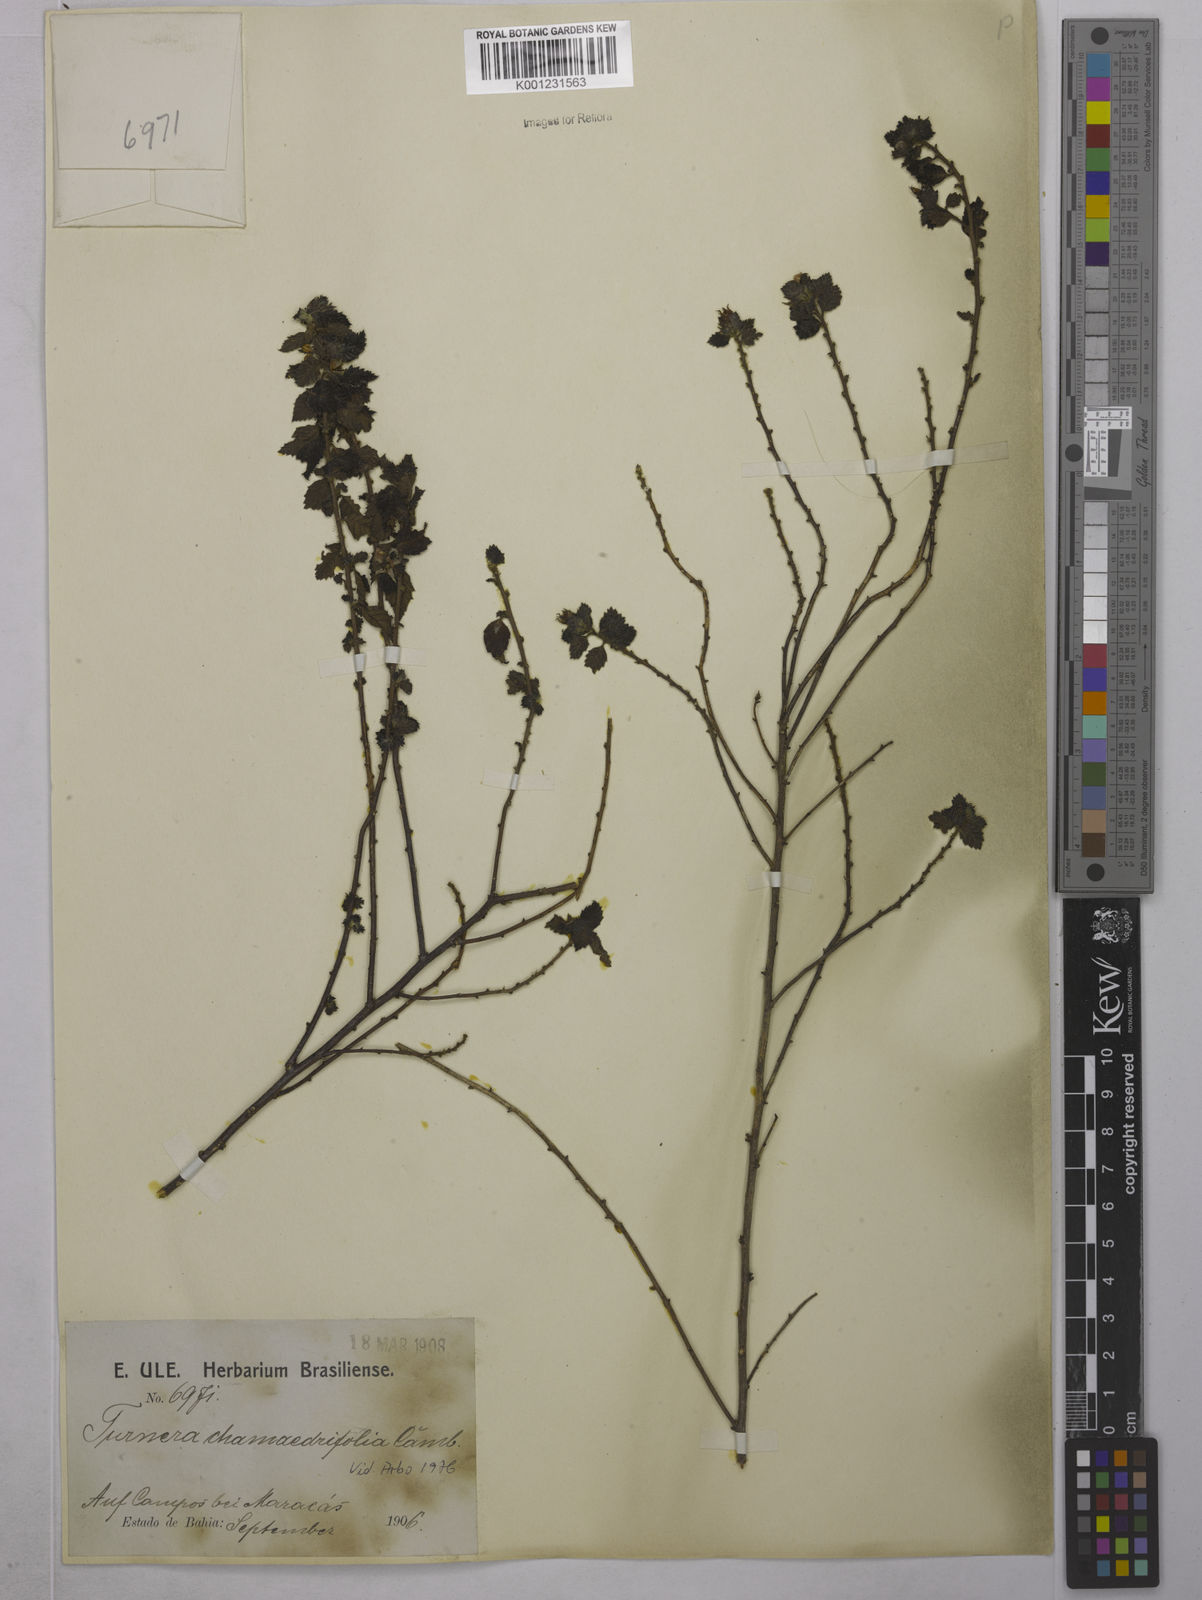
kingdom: Plantae
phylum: Tracheophyta
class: Magnoliopsida
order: Malpighiales
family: Turneraceae
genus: Turnera
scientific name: Turnera chamaedrifolia
